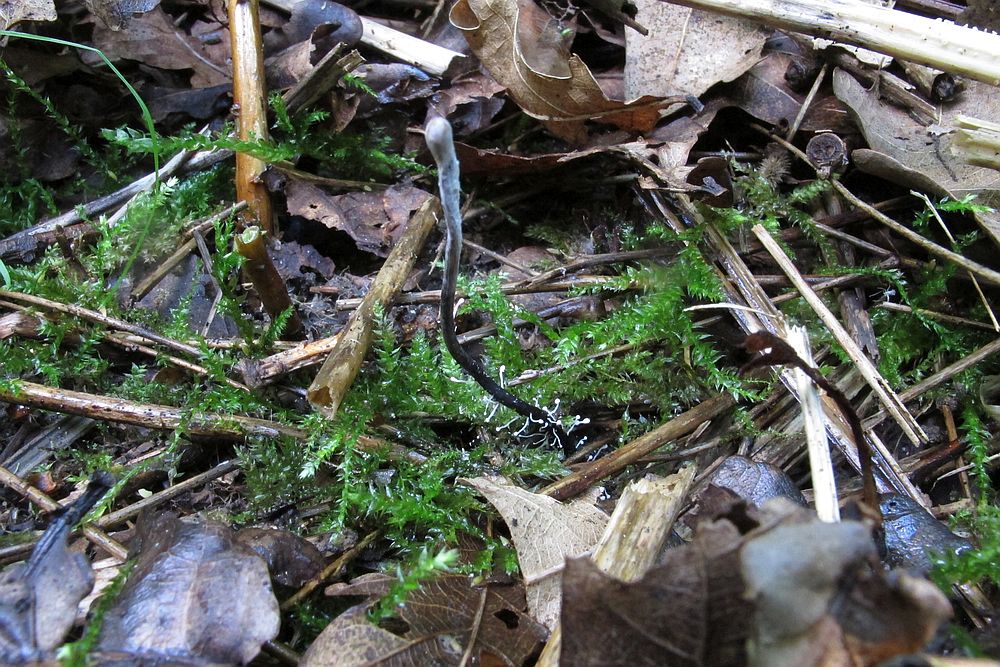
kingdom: Fungi
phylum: Ascomycota
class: Sordariomycetes
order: Hypocreales
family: Ophiocordycipitaceae
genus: Ophiocordyceps
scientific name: Ophiocordyceps entomorrhiza
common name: grå snyltekølle
